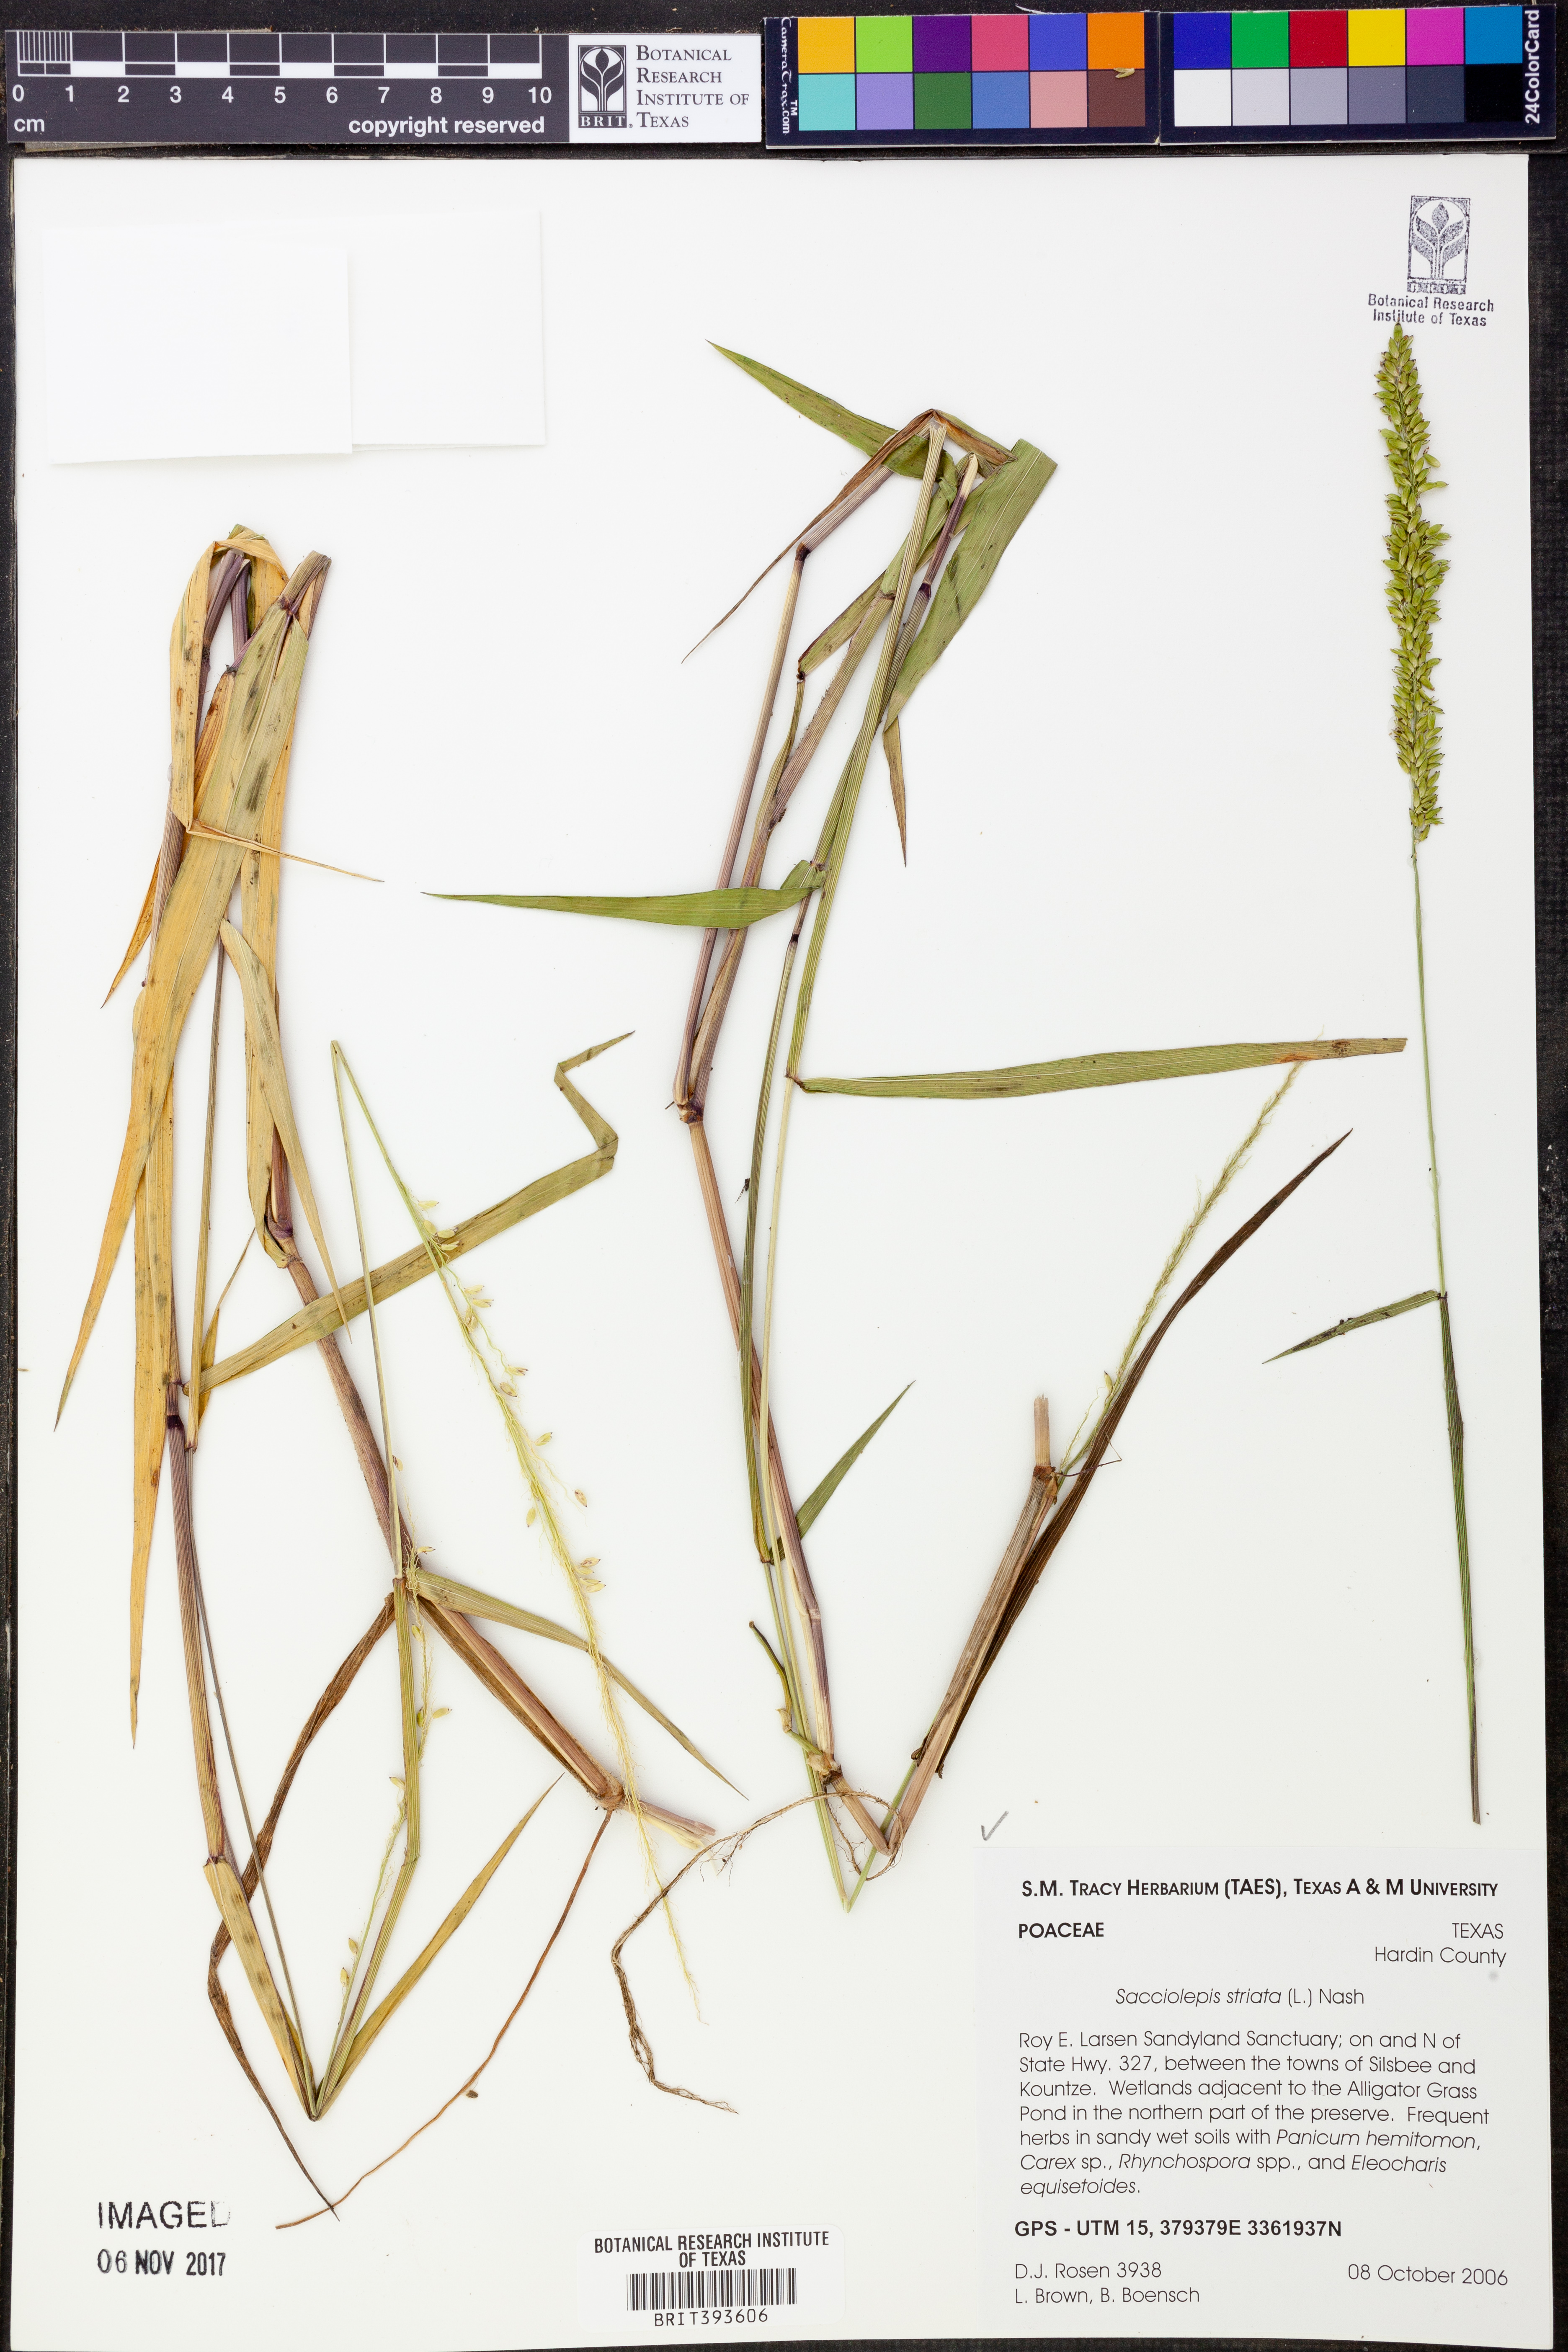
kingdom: Plantae
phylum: Tracheophyta
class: Liliopsida
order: Poales
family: Poaceae
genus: Sacciolepis
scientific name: Sacciolepis striata
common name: American cupscale
